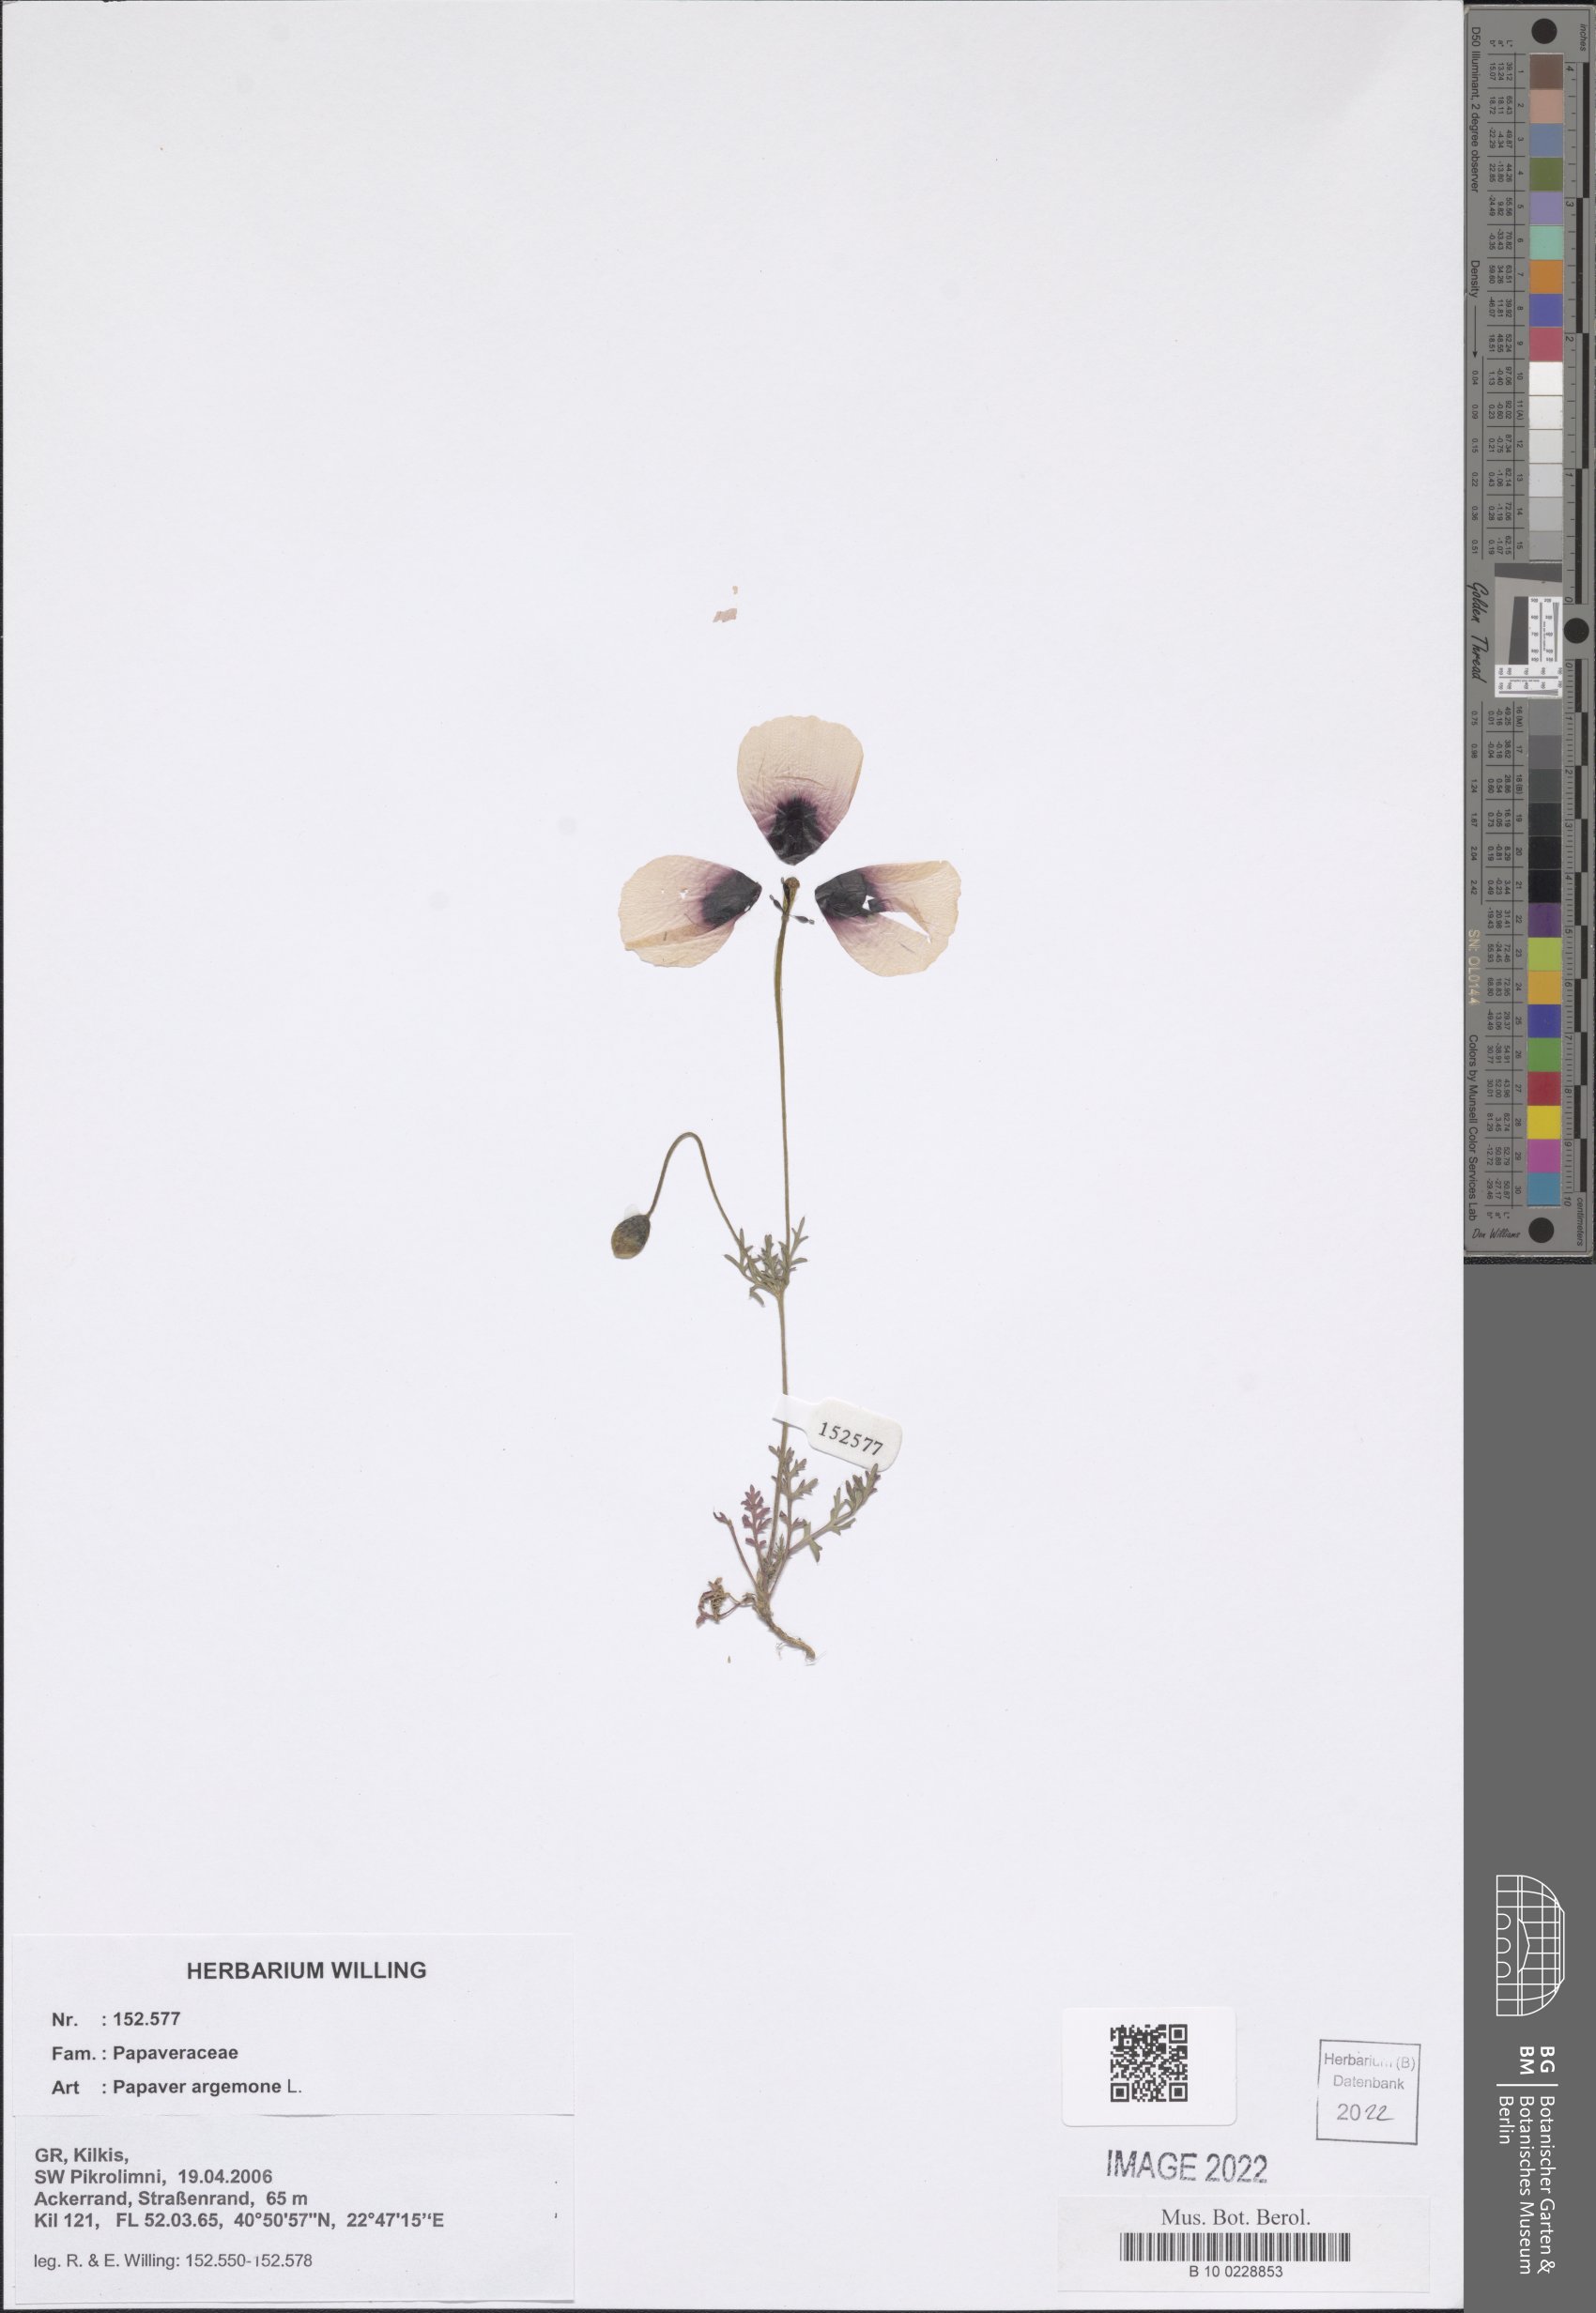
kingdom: Plantae
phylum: Tracheophyta
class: Magnoliopsida
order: Ranunculales
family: Papaveraceae
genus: Roemeria
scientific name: Roemeria argemone
